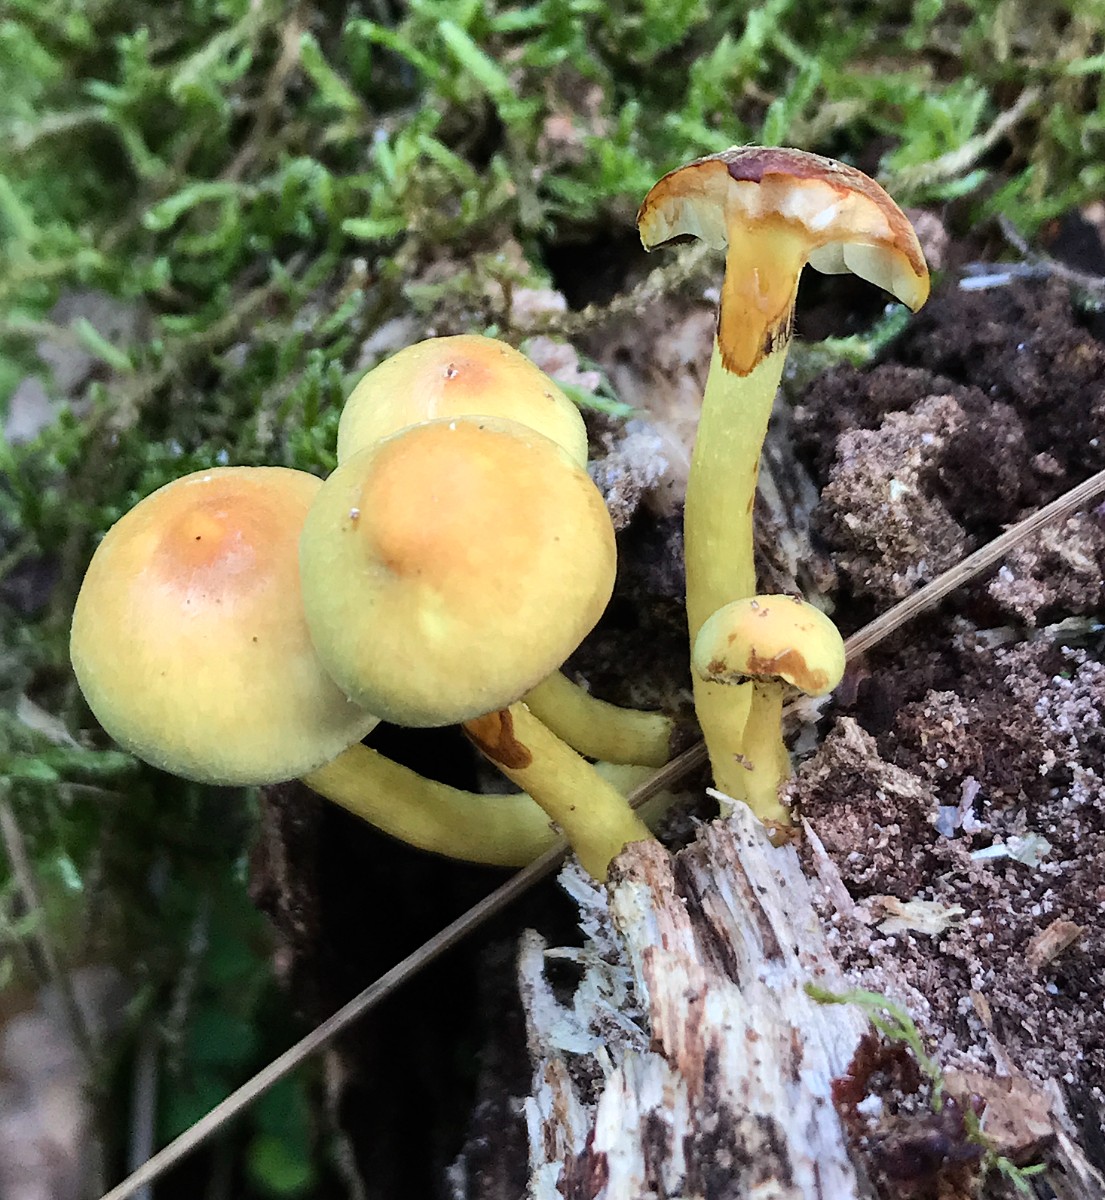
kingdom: Fungi
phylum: Basidiomycota
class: Agaricomycetes
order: Agaricales
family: Strophariaceae
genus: Hypholoma
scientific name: Hypholoma fasciculare
